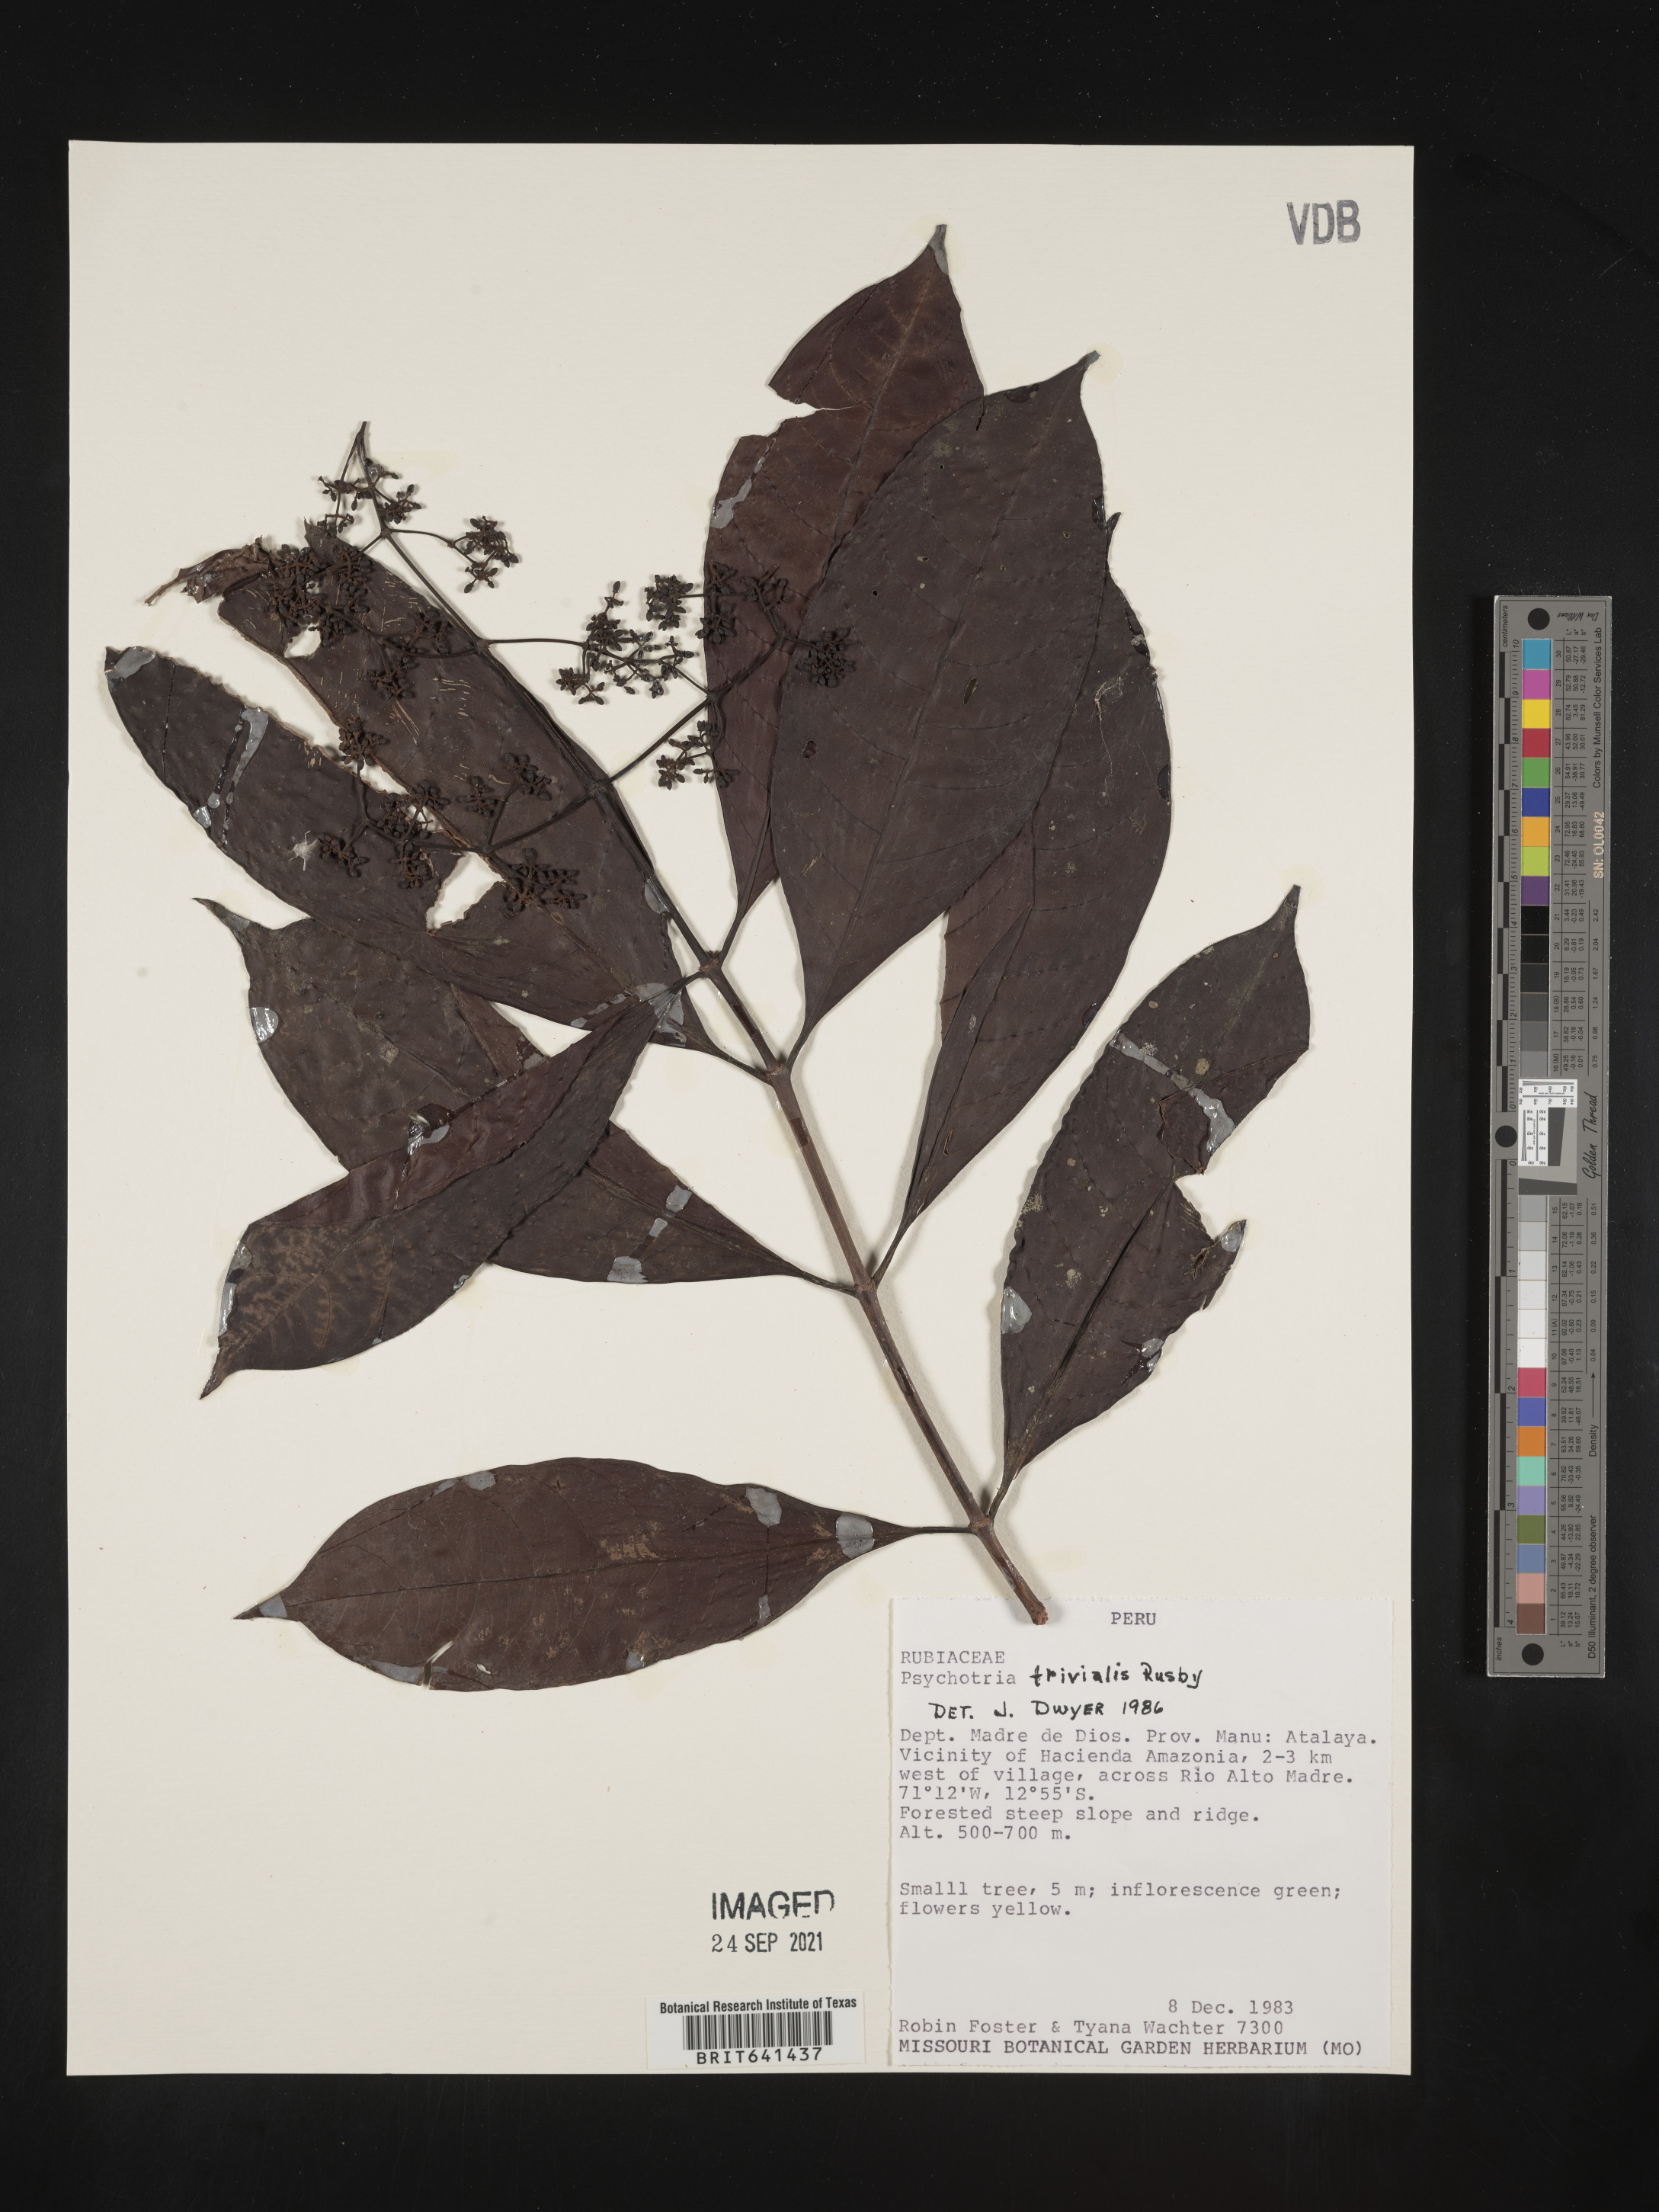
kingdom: Plantae
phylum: Tracheophyta
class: Magnoliopsida
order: Gentianales
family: Rubiaceae
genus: Psychotria
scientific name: Psychotria
